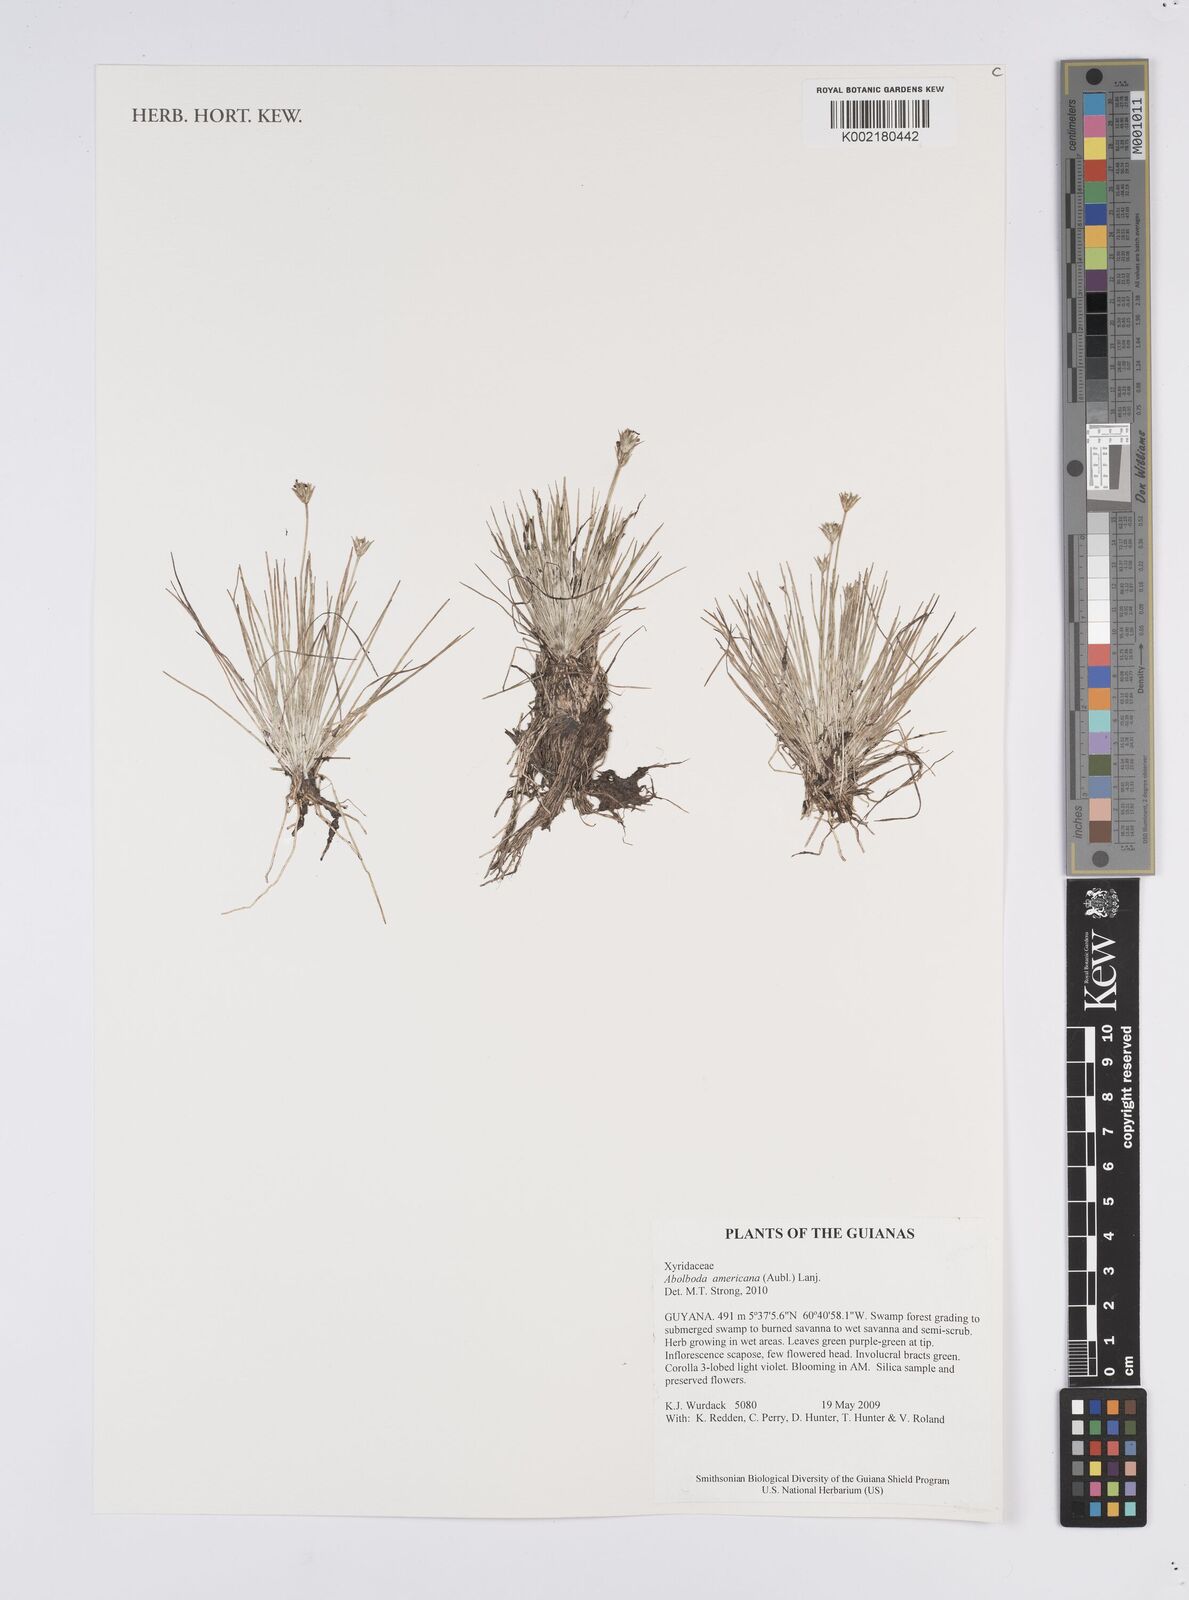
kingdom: Plantae
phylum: Tracheophyta
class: Liliopsida
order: Poales
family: Xyridaceae
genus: Abolboda
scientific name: Abolboda americana
